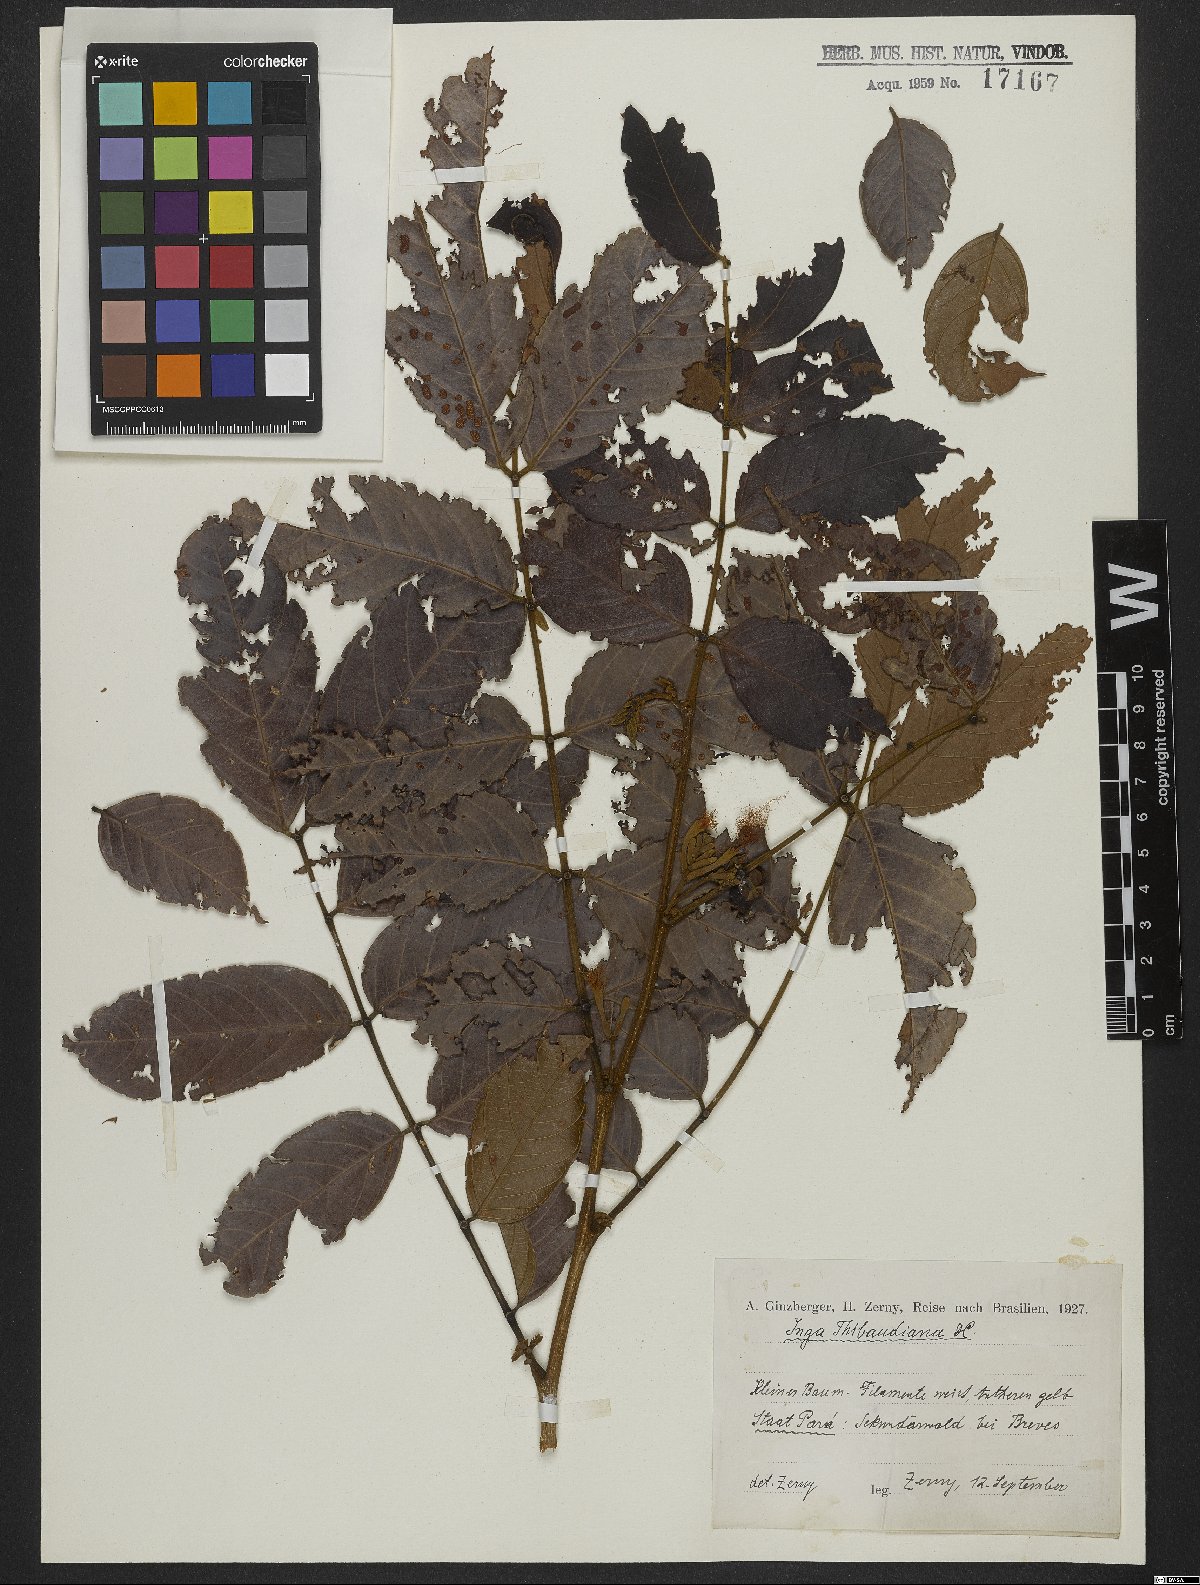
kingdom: Plantae
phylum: Tracheophyta
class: Magnoliopsida
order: Fabales
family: Fabaceae
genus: Inga
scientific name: Inga thibaudiana
